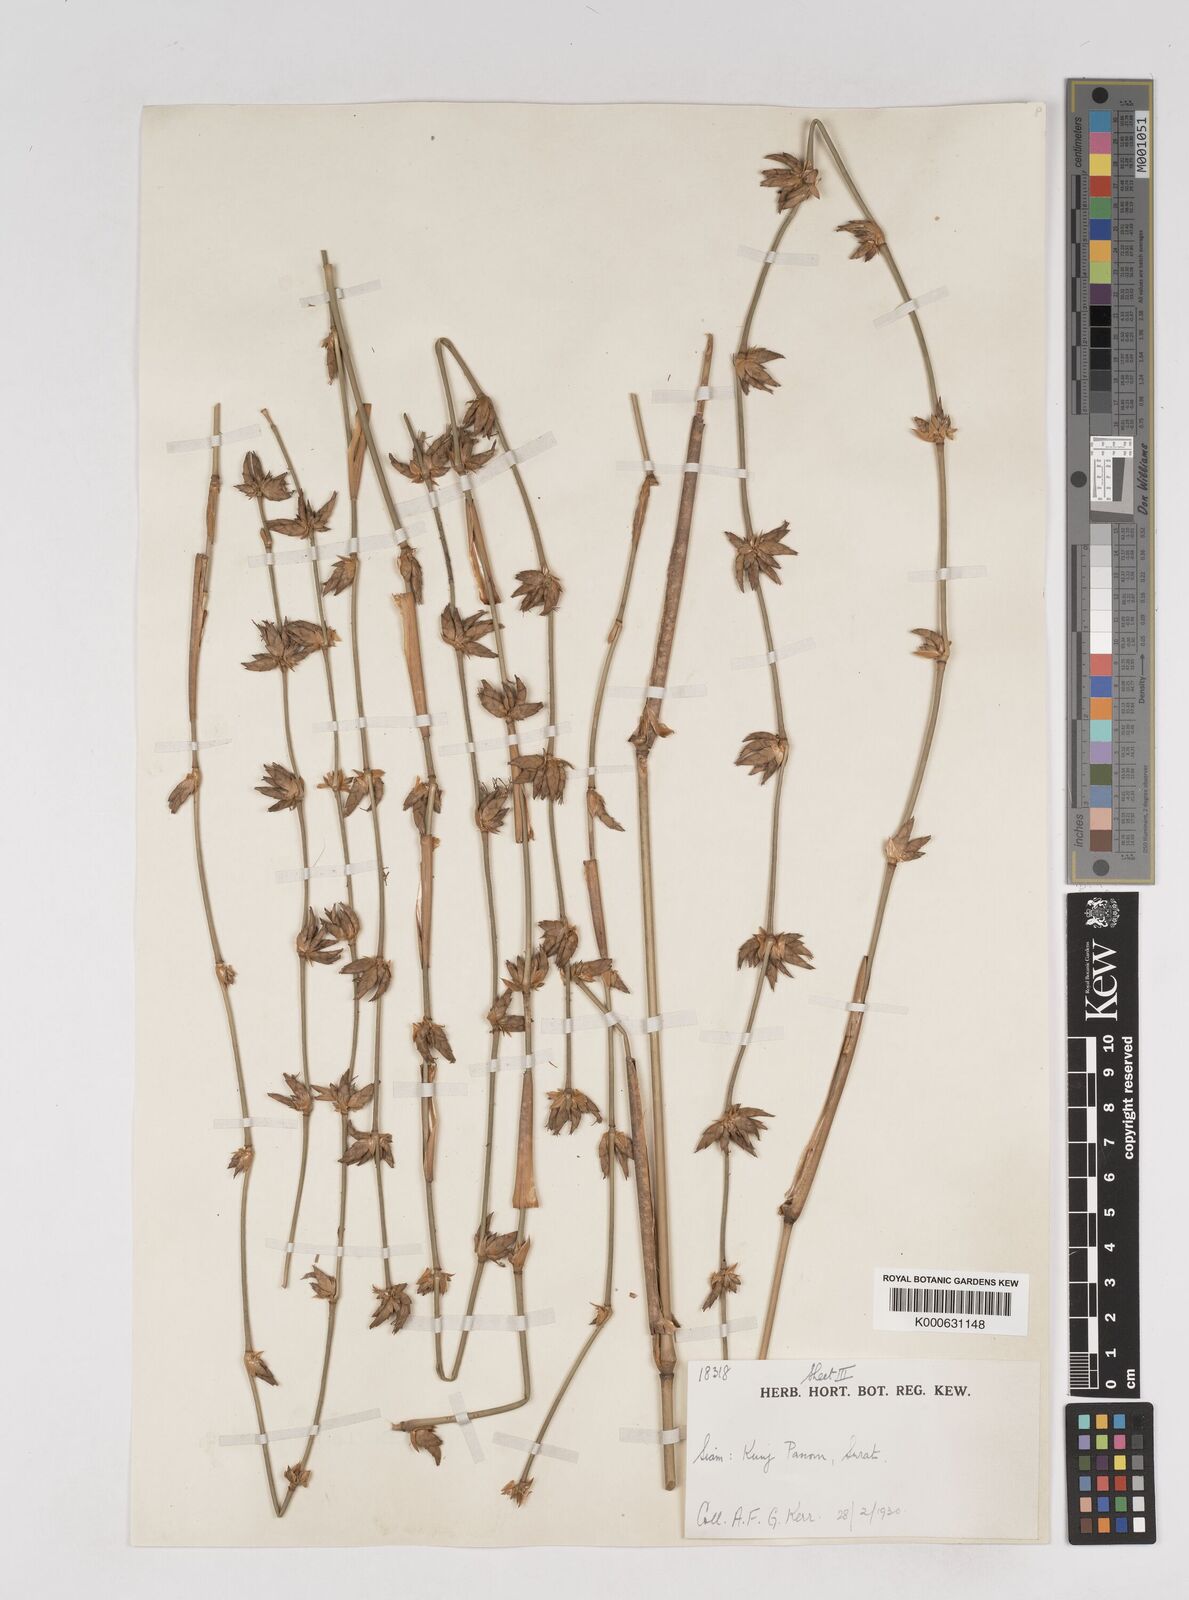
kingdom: Plantae
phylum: Tracheophyta
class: Liliopsida
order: Poales
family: Poaceae
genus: Gigantochloa
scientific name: Gigantochloa
